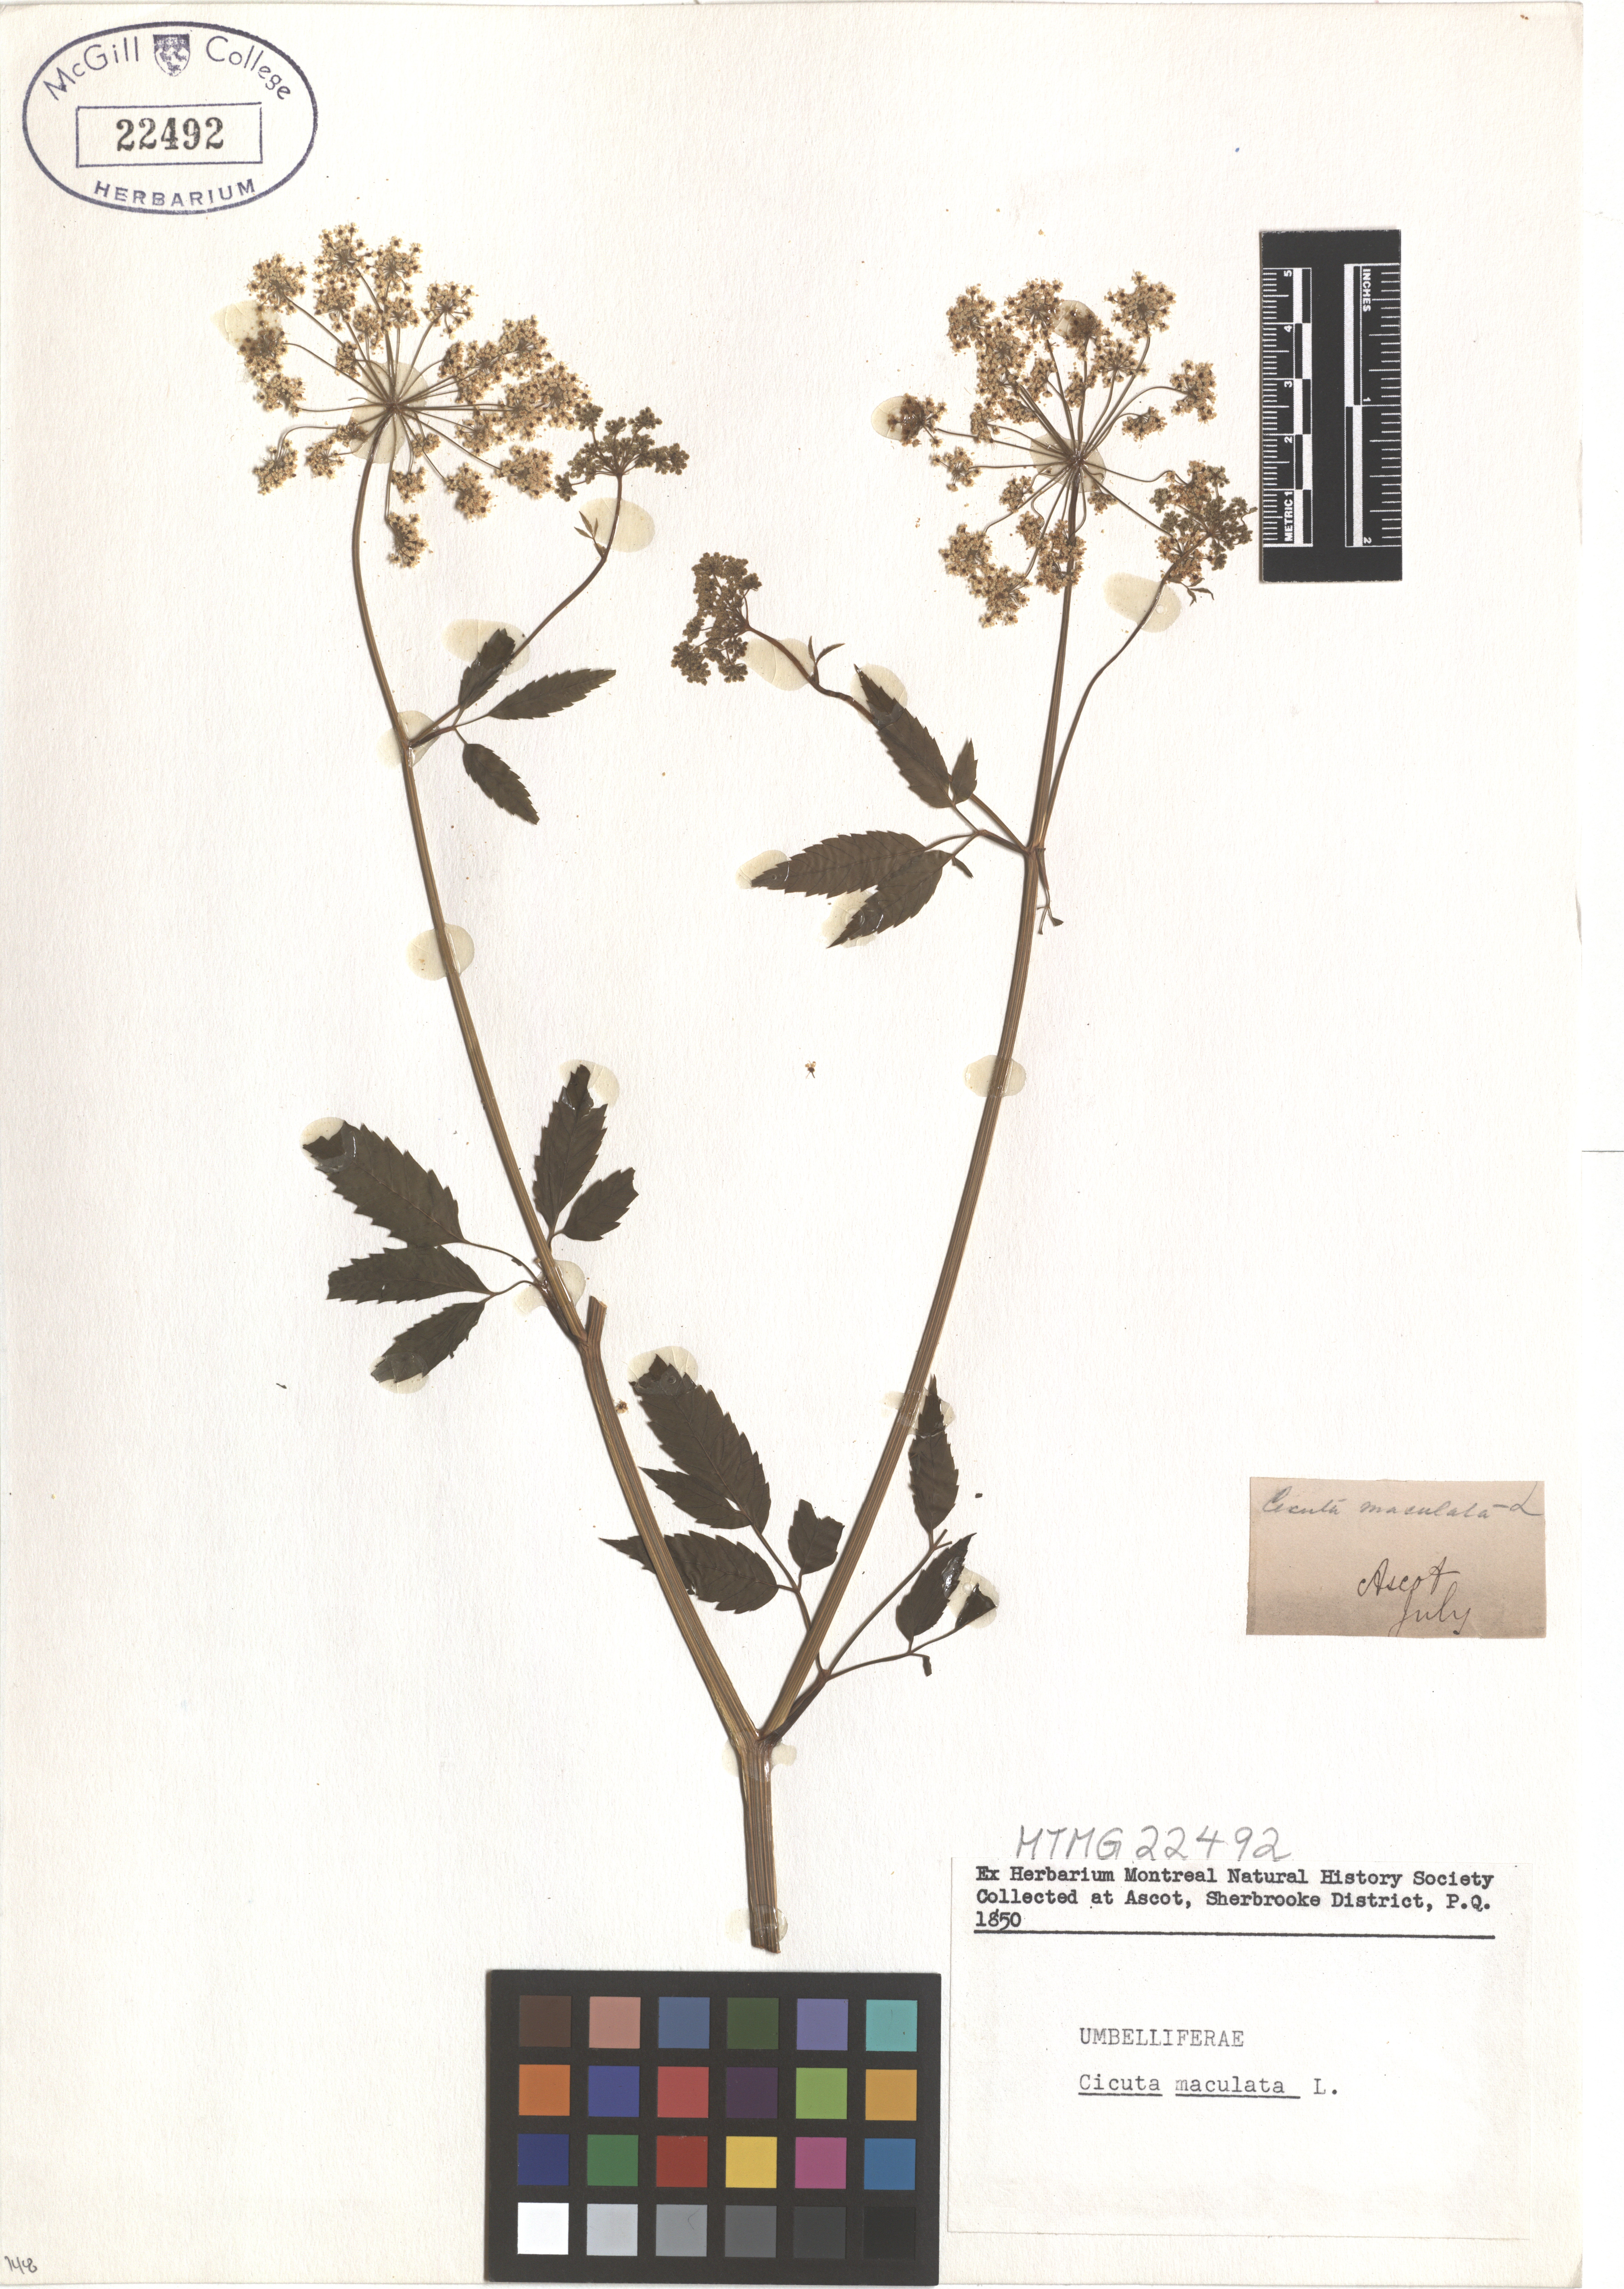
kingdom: Plantae
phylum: Tracheophyta
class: Magnoliopsida
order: Apiales
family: Apiaceae
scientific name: Apiaceae
